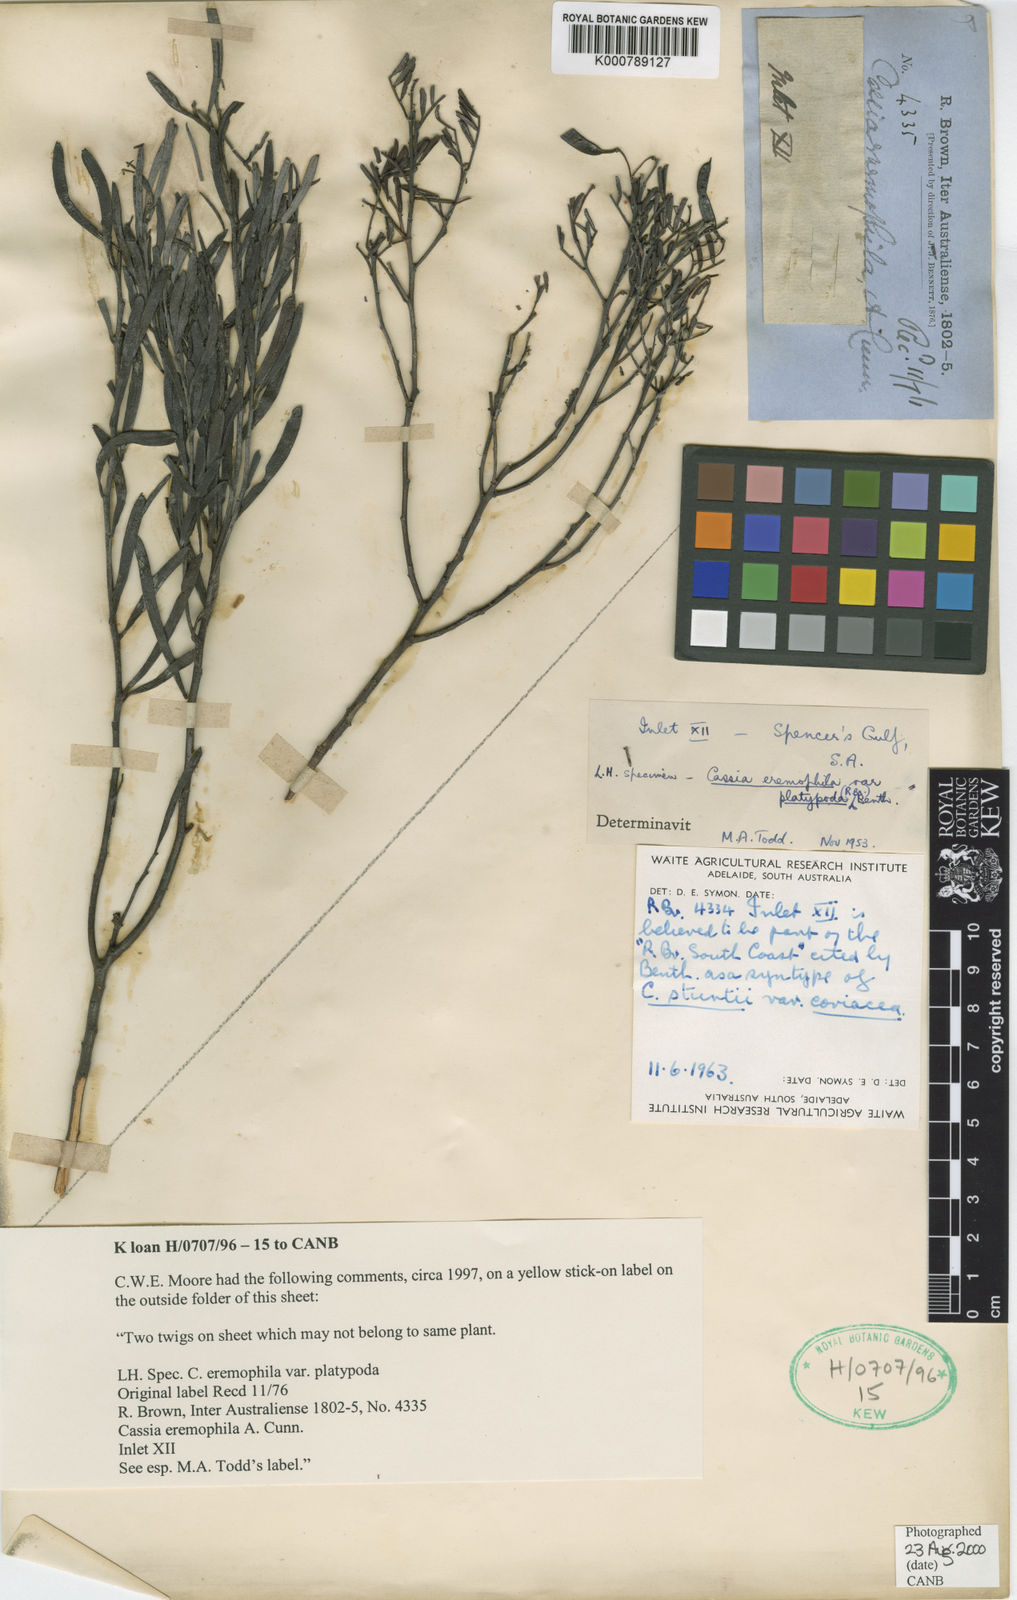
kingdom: Plantae
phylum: Tracheophyta
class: Magnoliopsida
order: Fabales
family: Fabaceae
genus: Senna
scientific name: Senna
